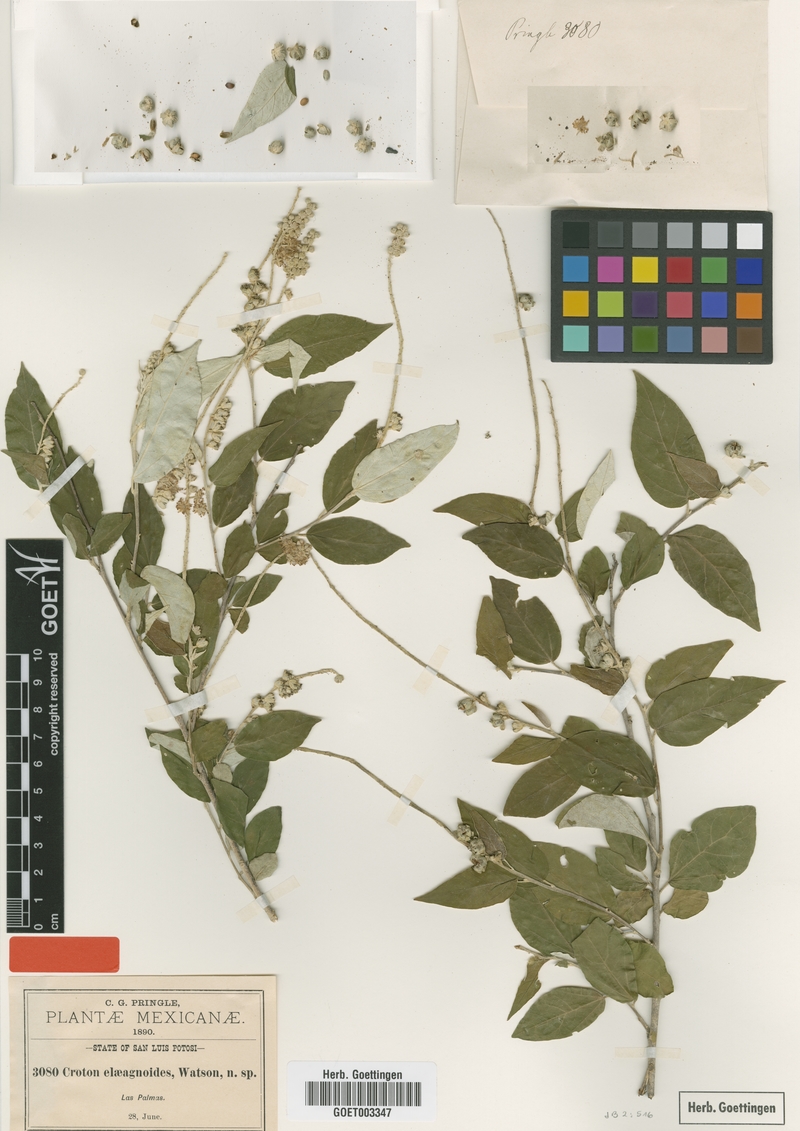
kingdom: Plantae
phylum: Tracheophyta
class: Magnoliopsida
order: Malpighiales
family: Euphorbiaceae
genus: Croton
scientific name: Croton watsonii
